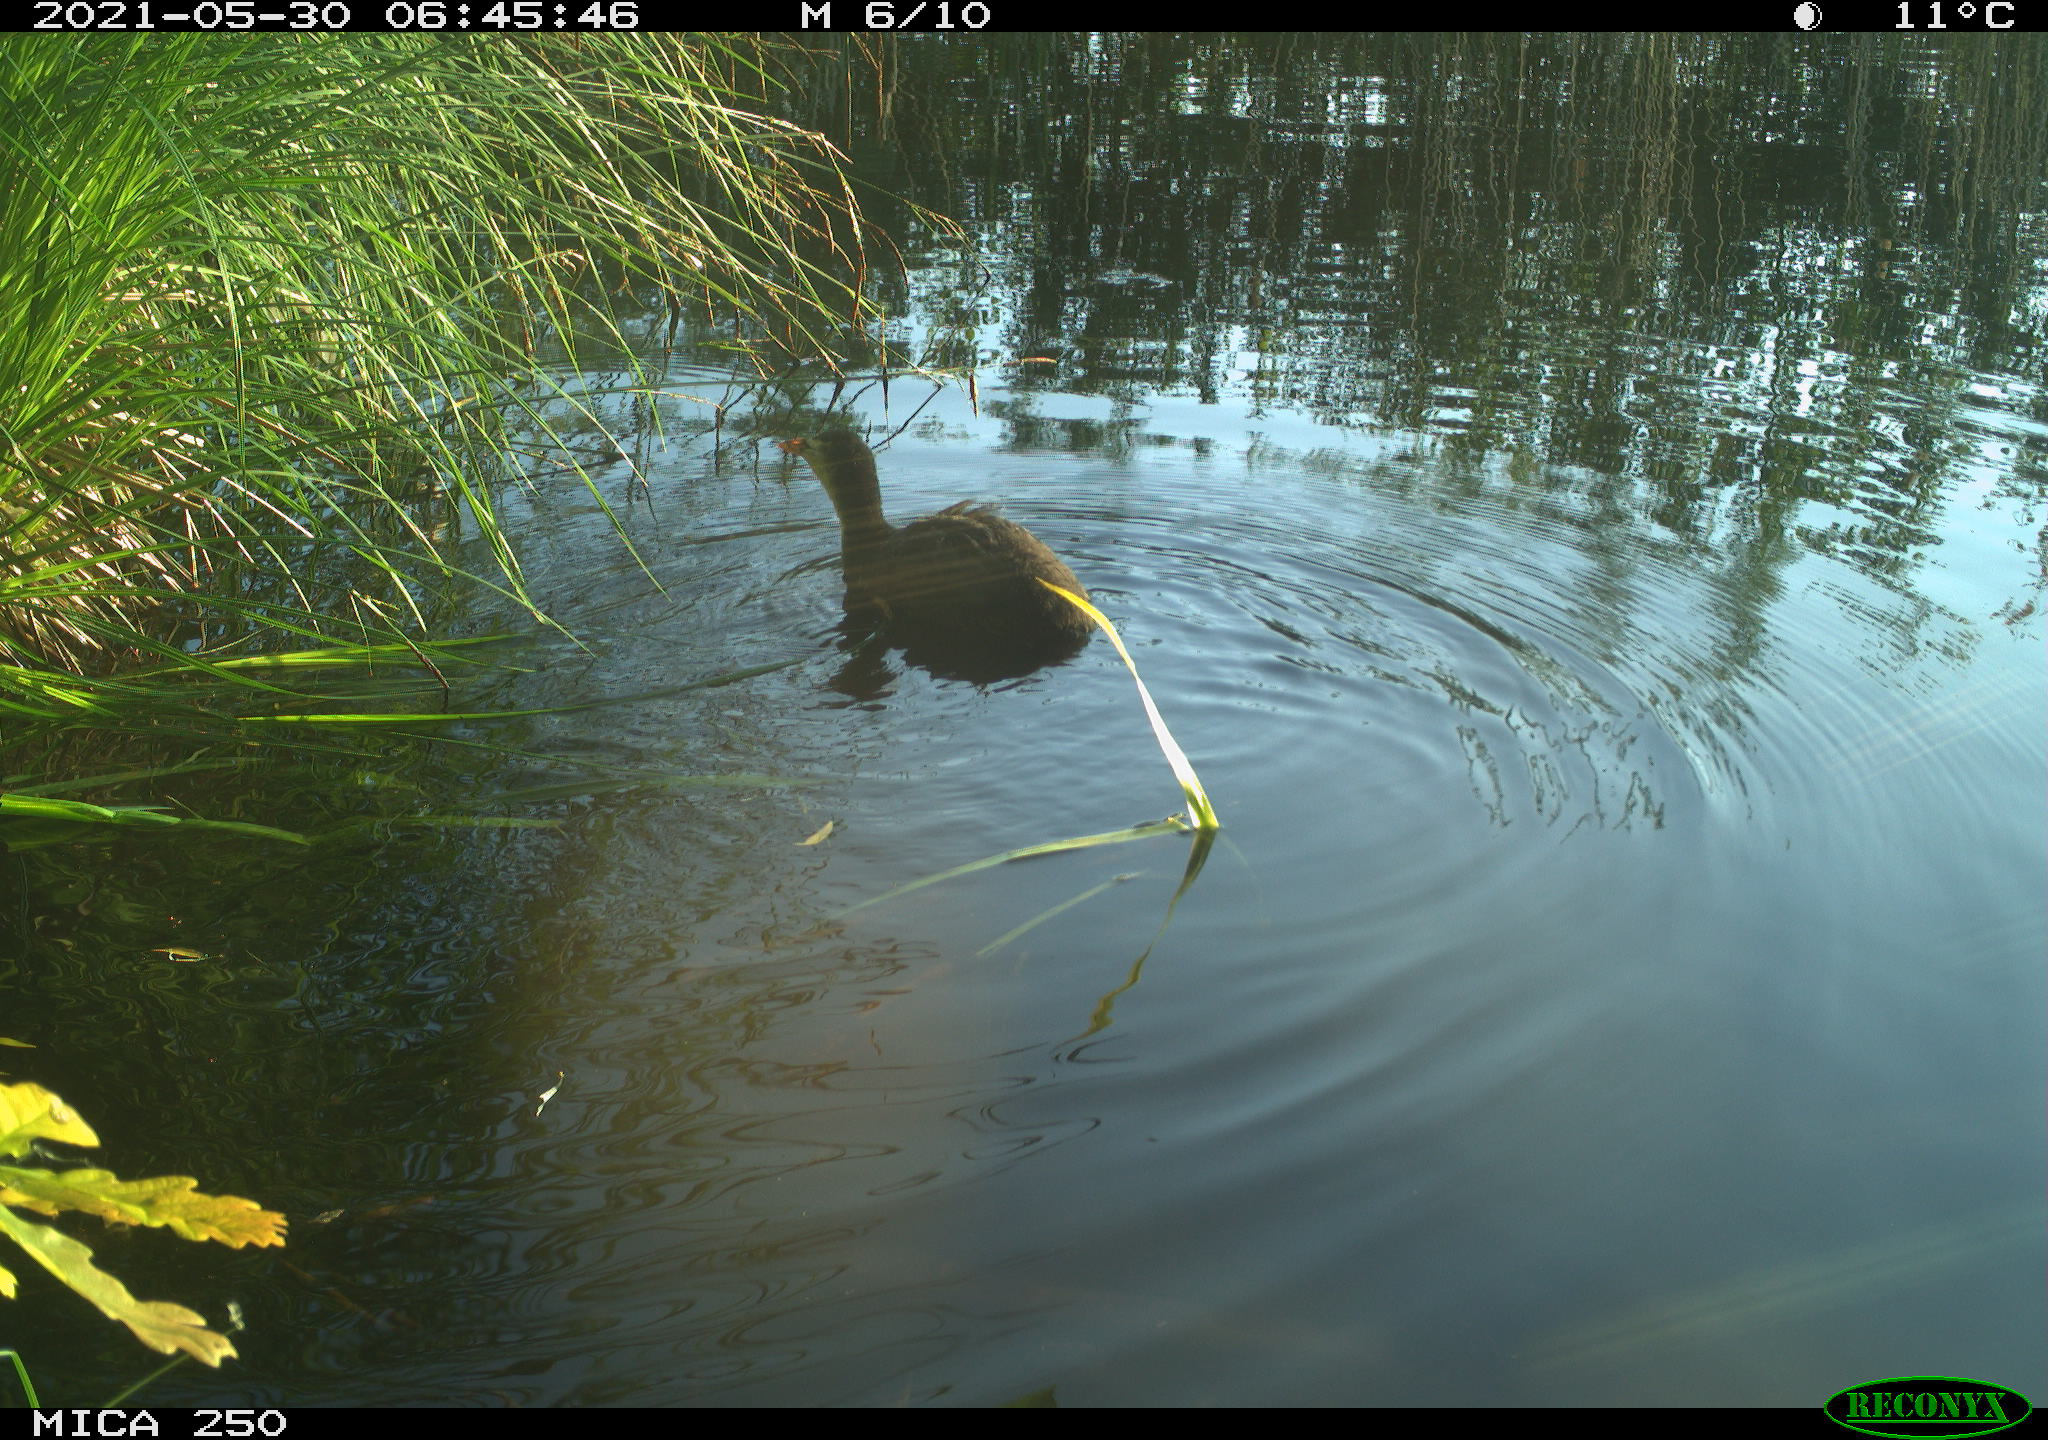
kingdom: Animalia
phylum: Chordata
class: Aves
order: Gruiformes
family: Rallidae
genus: Gallinula
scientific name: Gallinula chloropus
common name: Common moorhen
